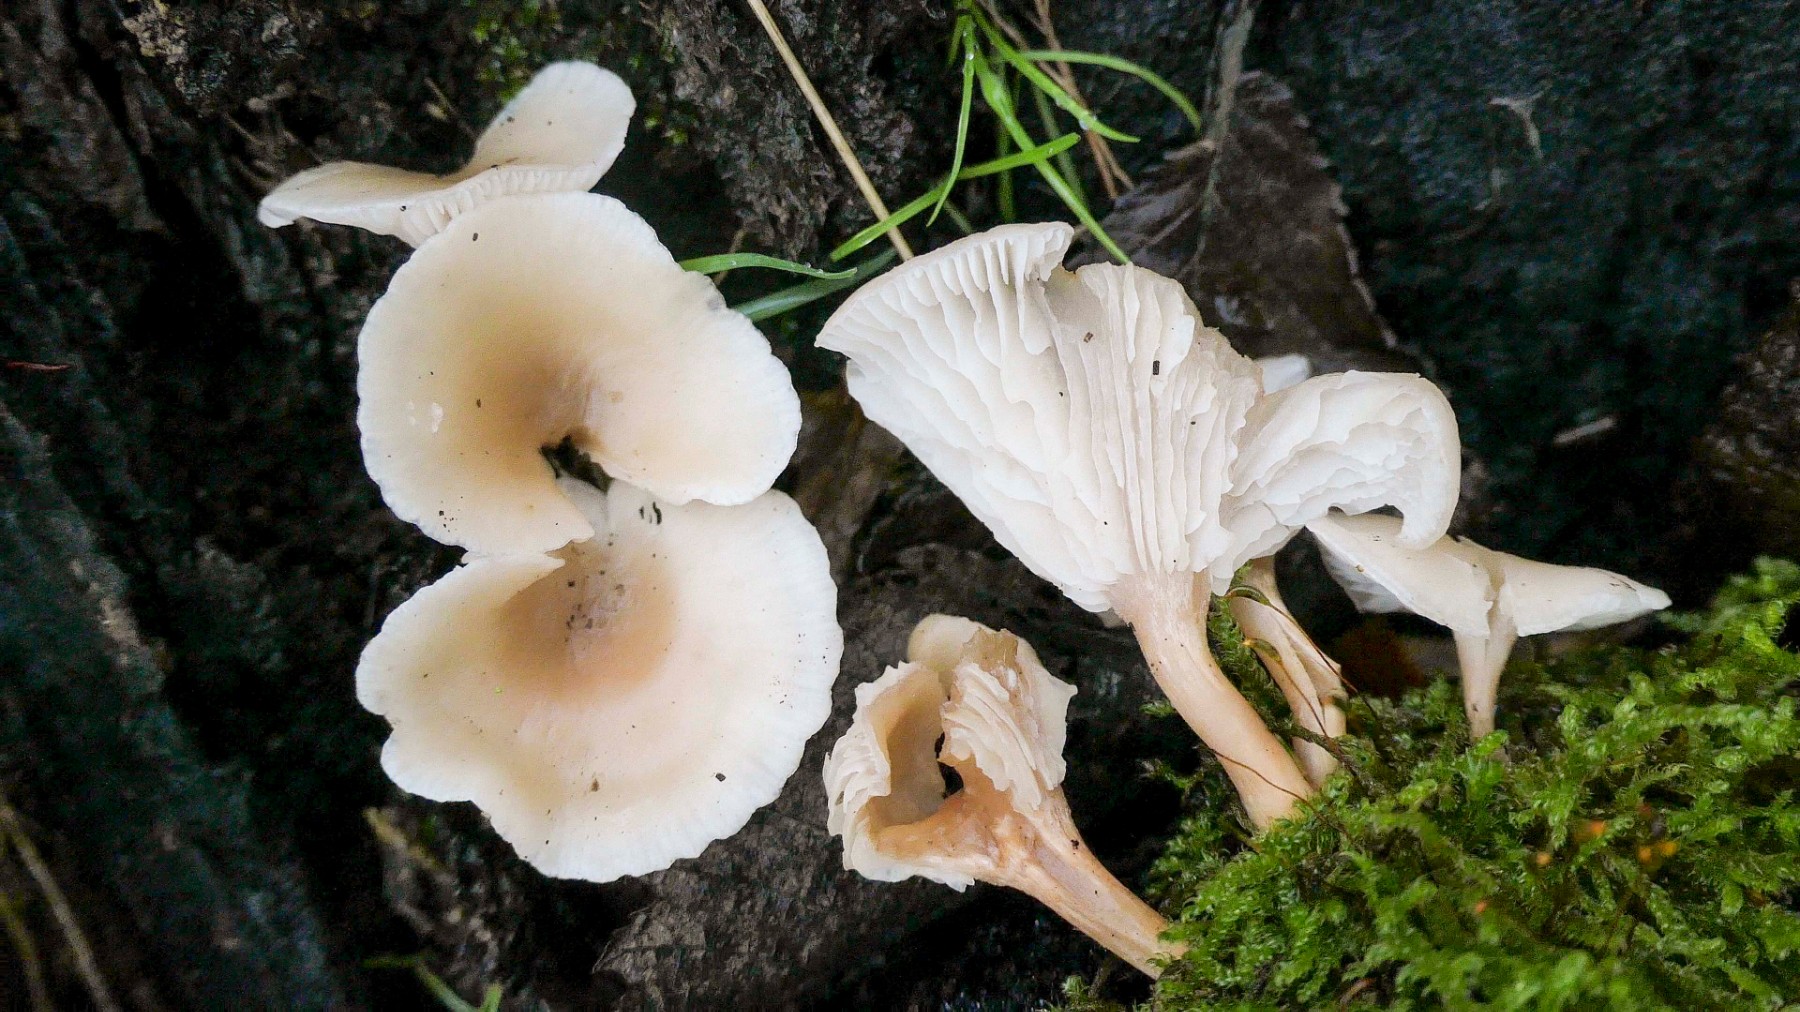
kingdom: Fungi
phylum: Basidiomycota
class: Agaricomycetes
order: Agaricales
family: Tricholomataceae
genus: Clitocybe
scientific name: Clitocybe diatreta
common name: kødfarvet tragthat
